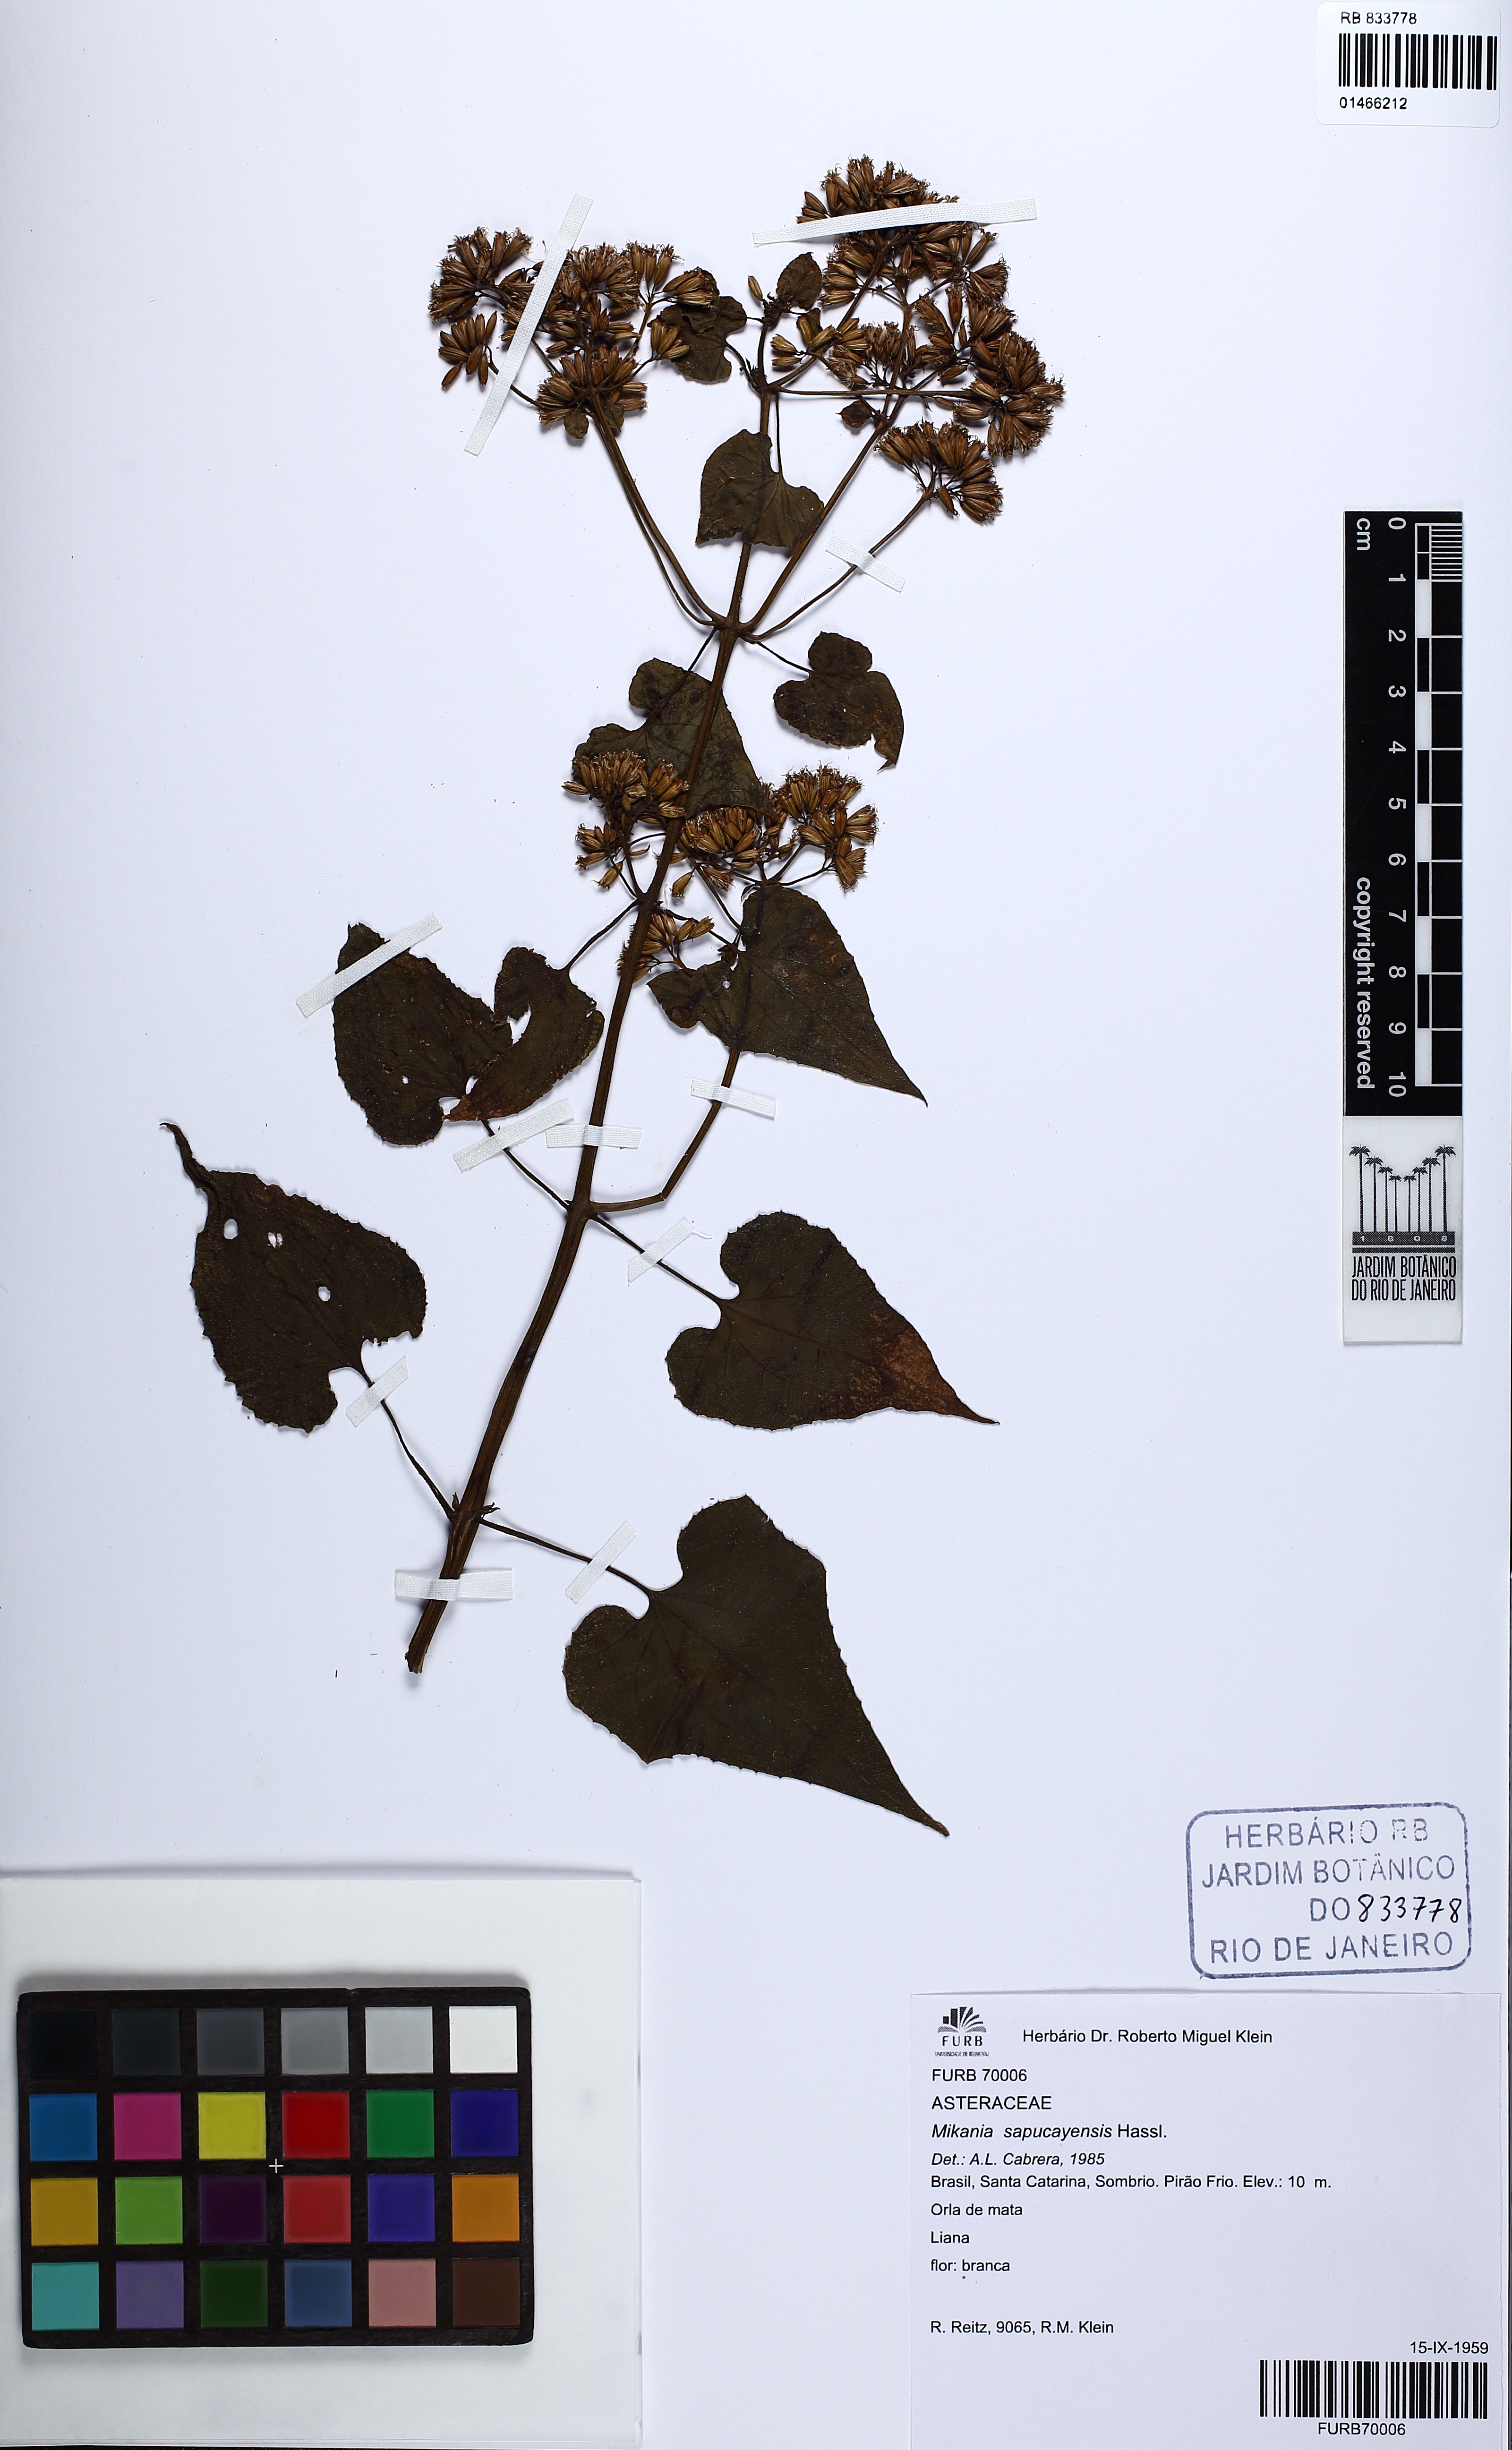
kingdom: Plantae
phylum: Tracheophyta
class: Magnoliopsida
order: Asterales
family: Asteraceae
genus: Mikania
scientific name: Mikania variifolia
